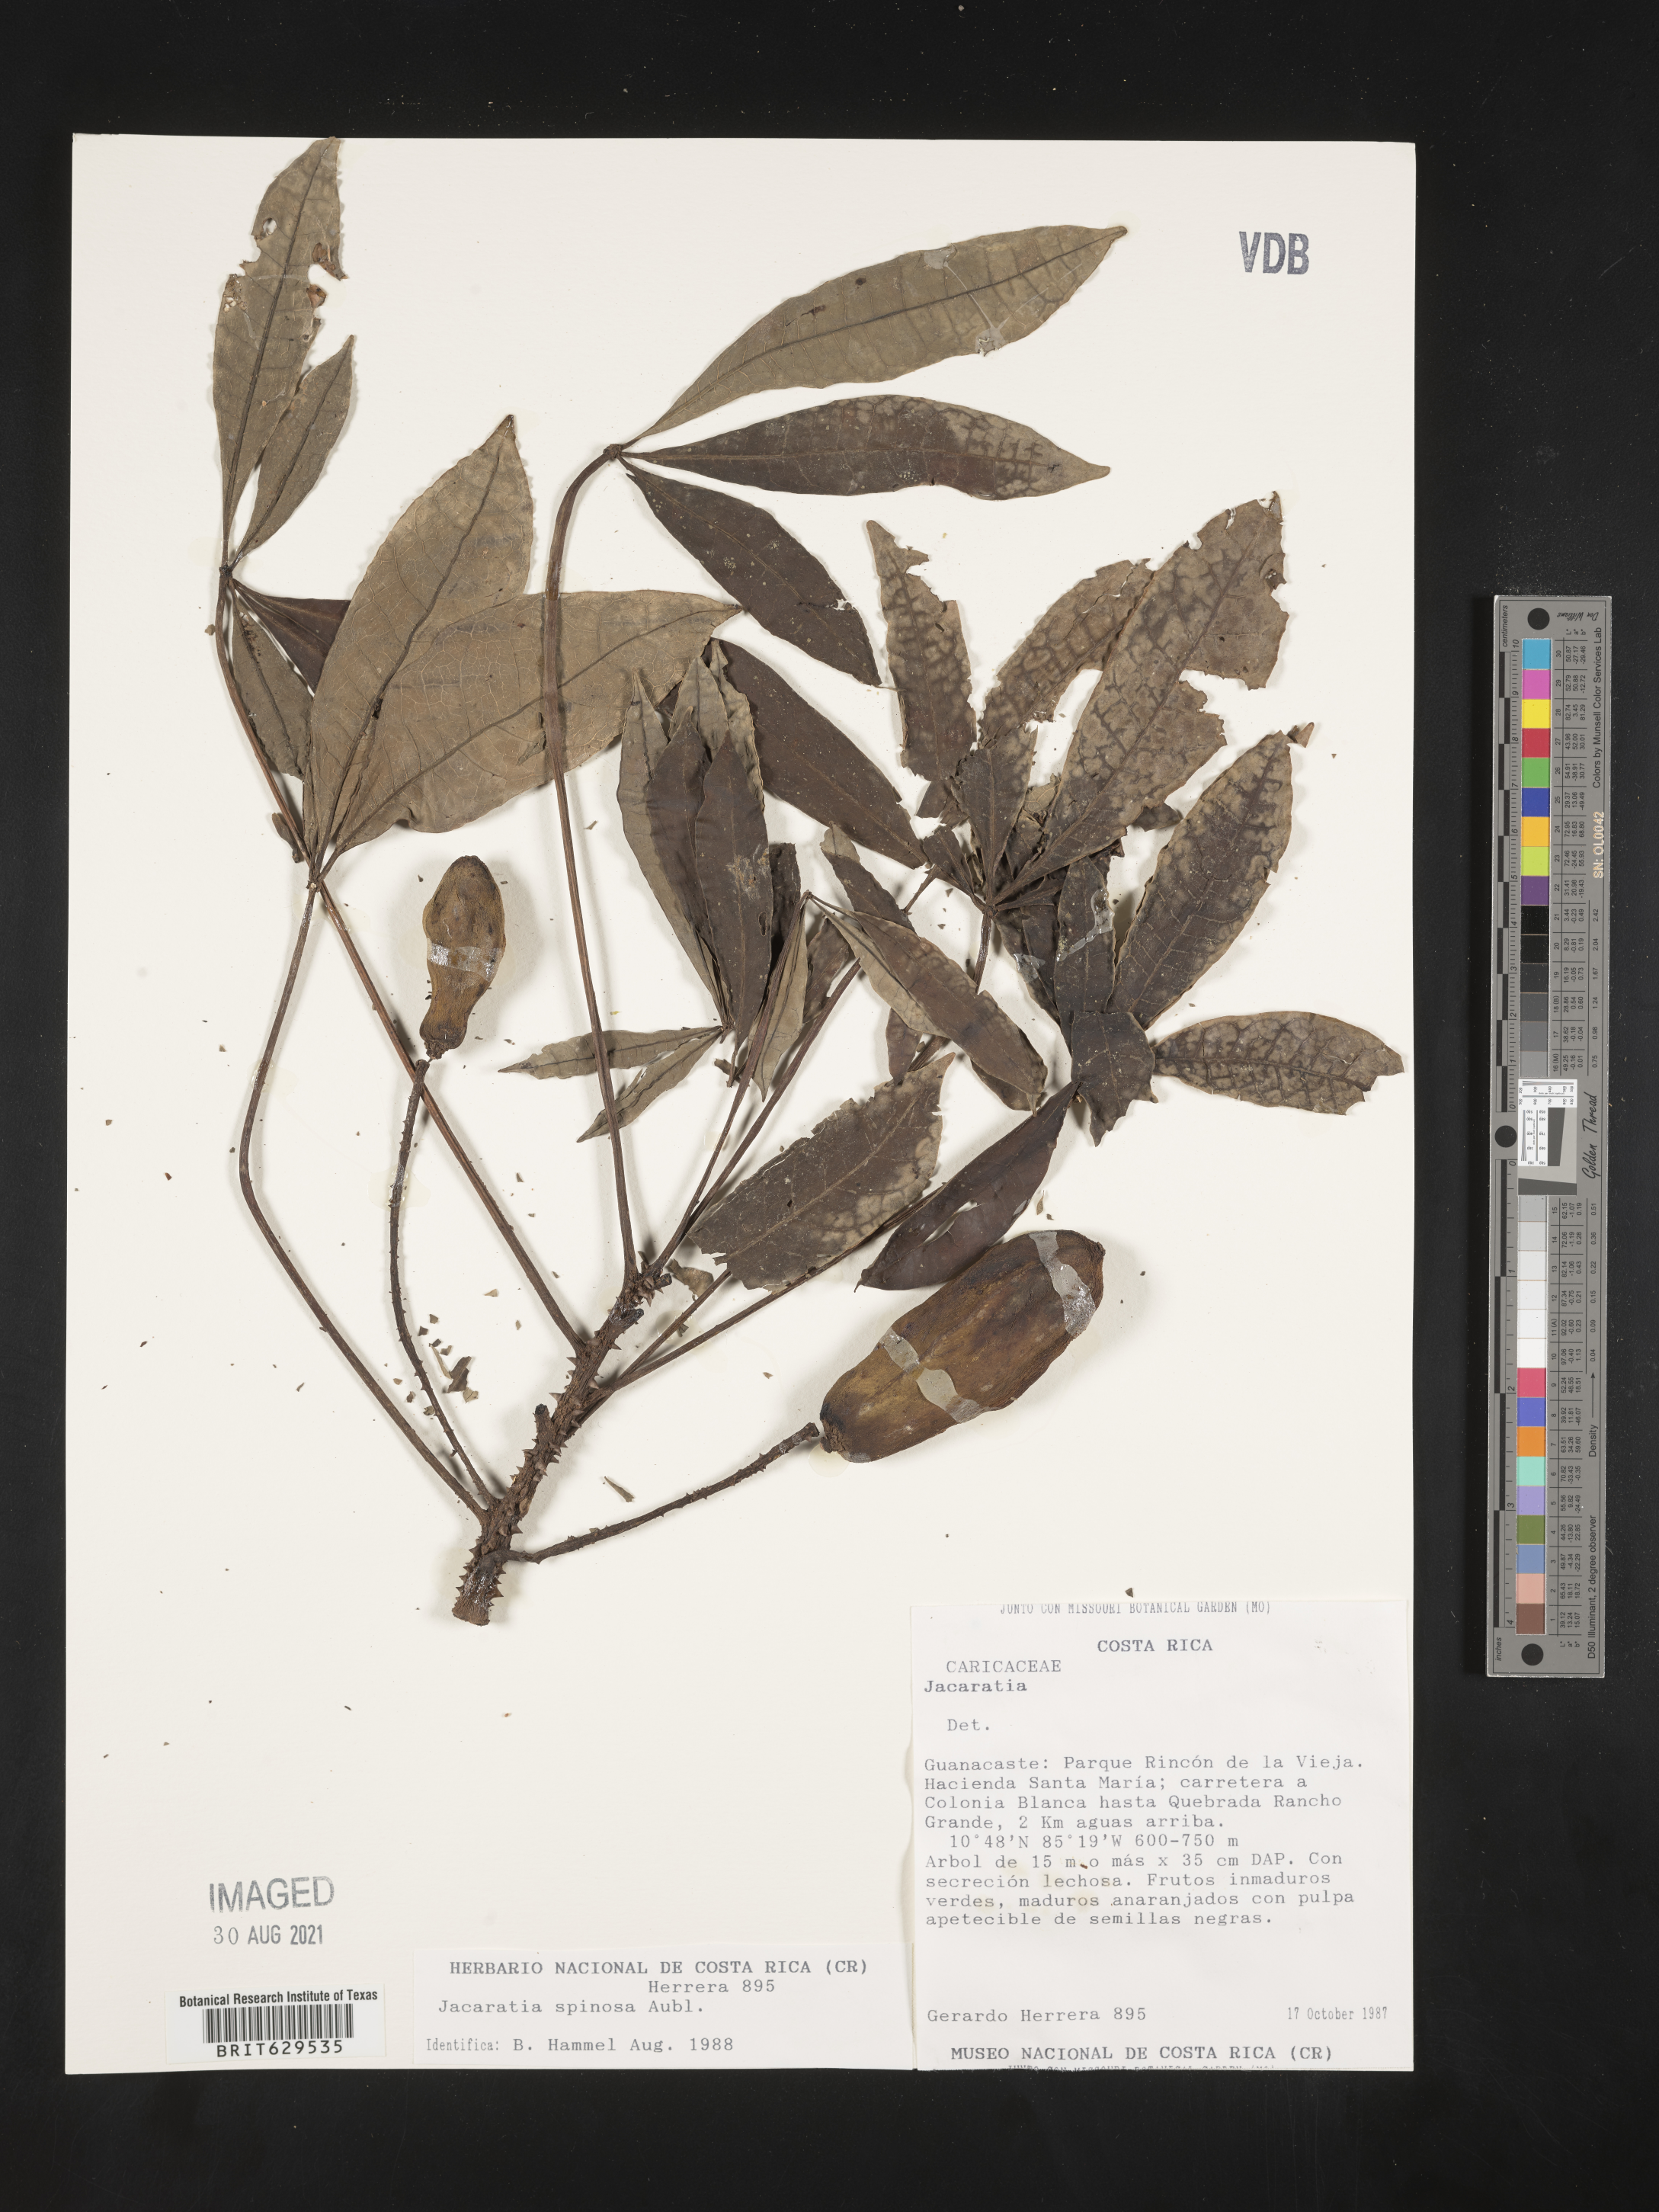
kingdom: Plantae
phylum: Tracheophyta
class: Magnoliopsida
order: Brassicales
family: Caricaceae
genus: Jacaratia
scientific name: Jacaratia spinosa
